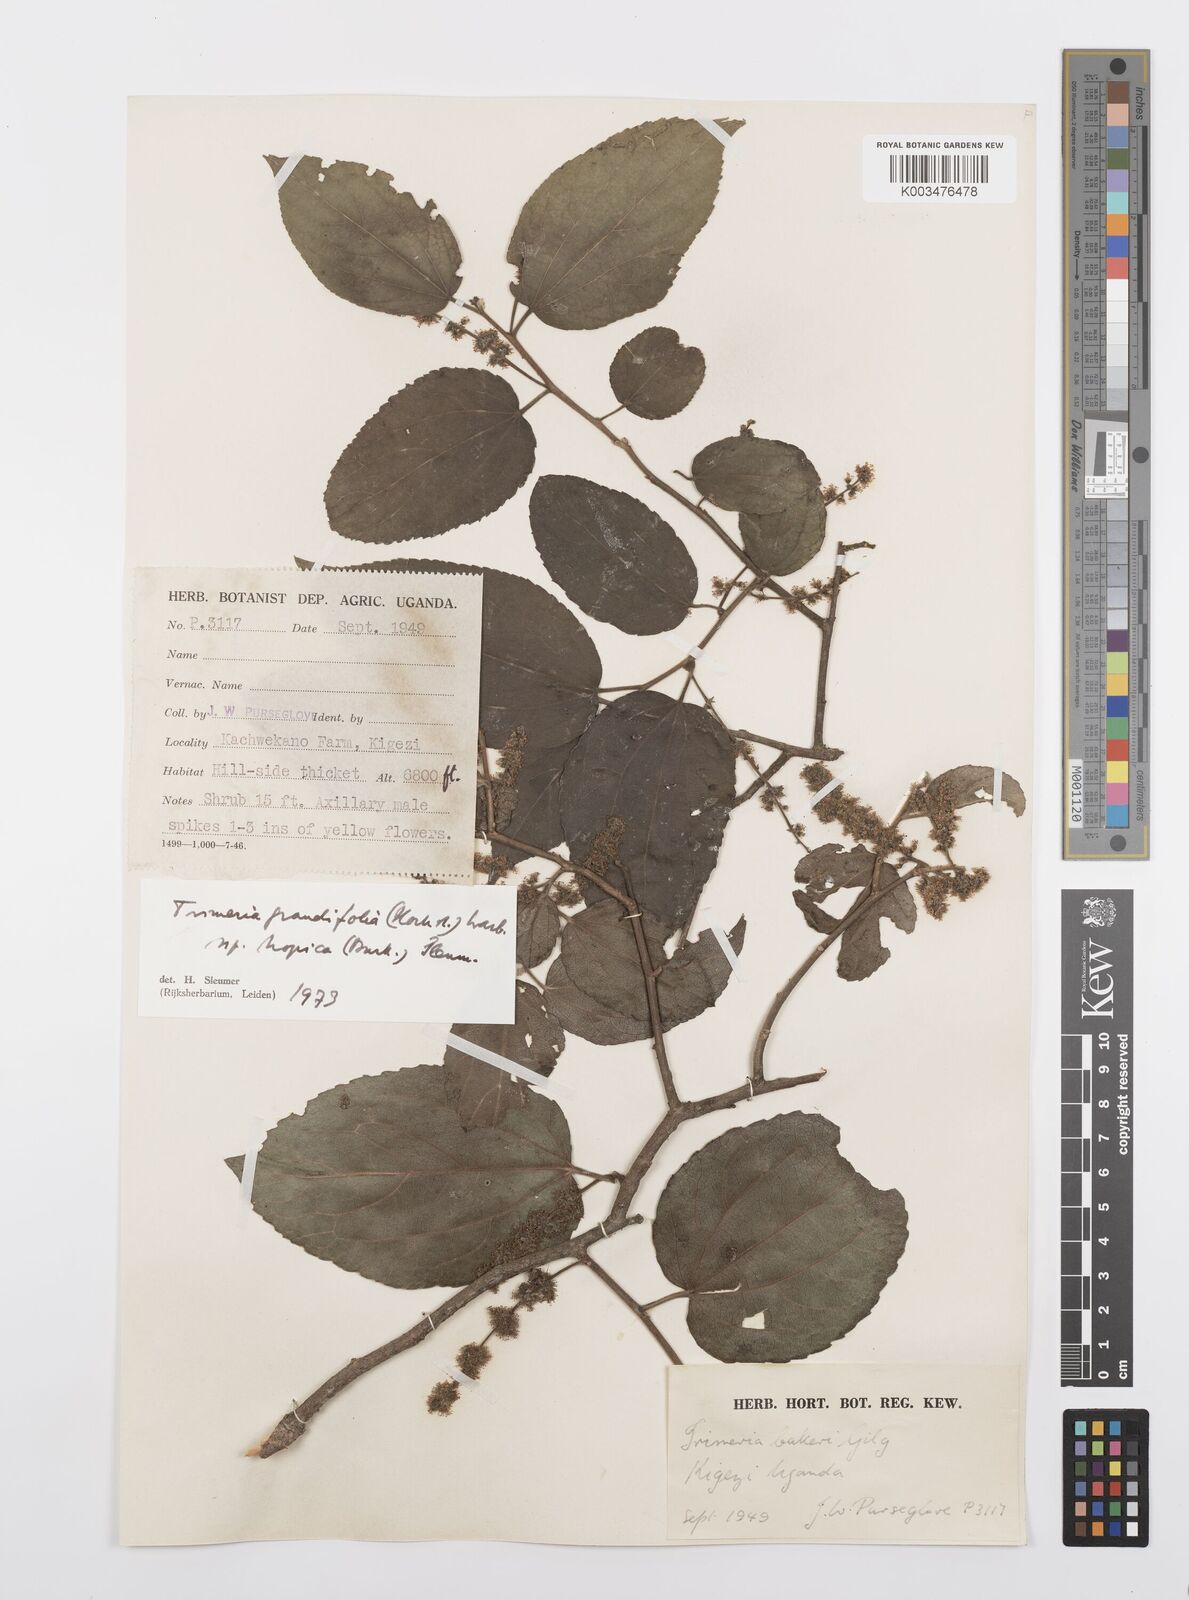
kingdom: Plantae
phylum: Tracheophyta
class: Magnoliopsida
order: Malpighiales
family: Salicaceae
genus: Trimeria
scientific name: Trimeria grandifolia
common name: Wild mulberry
